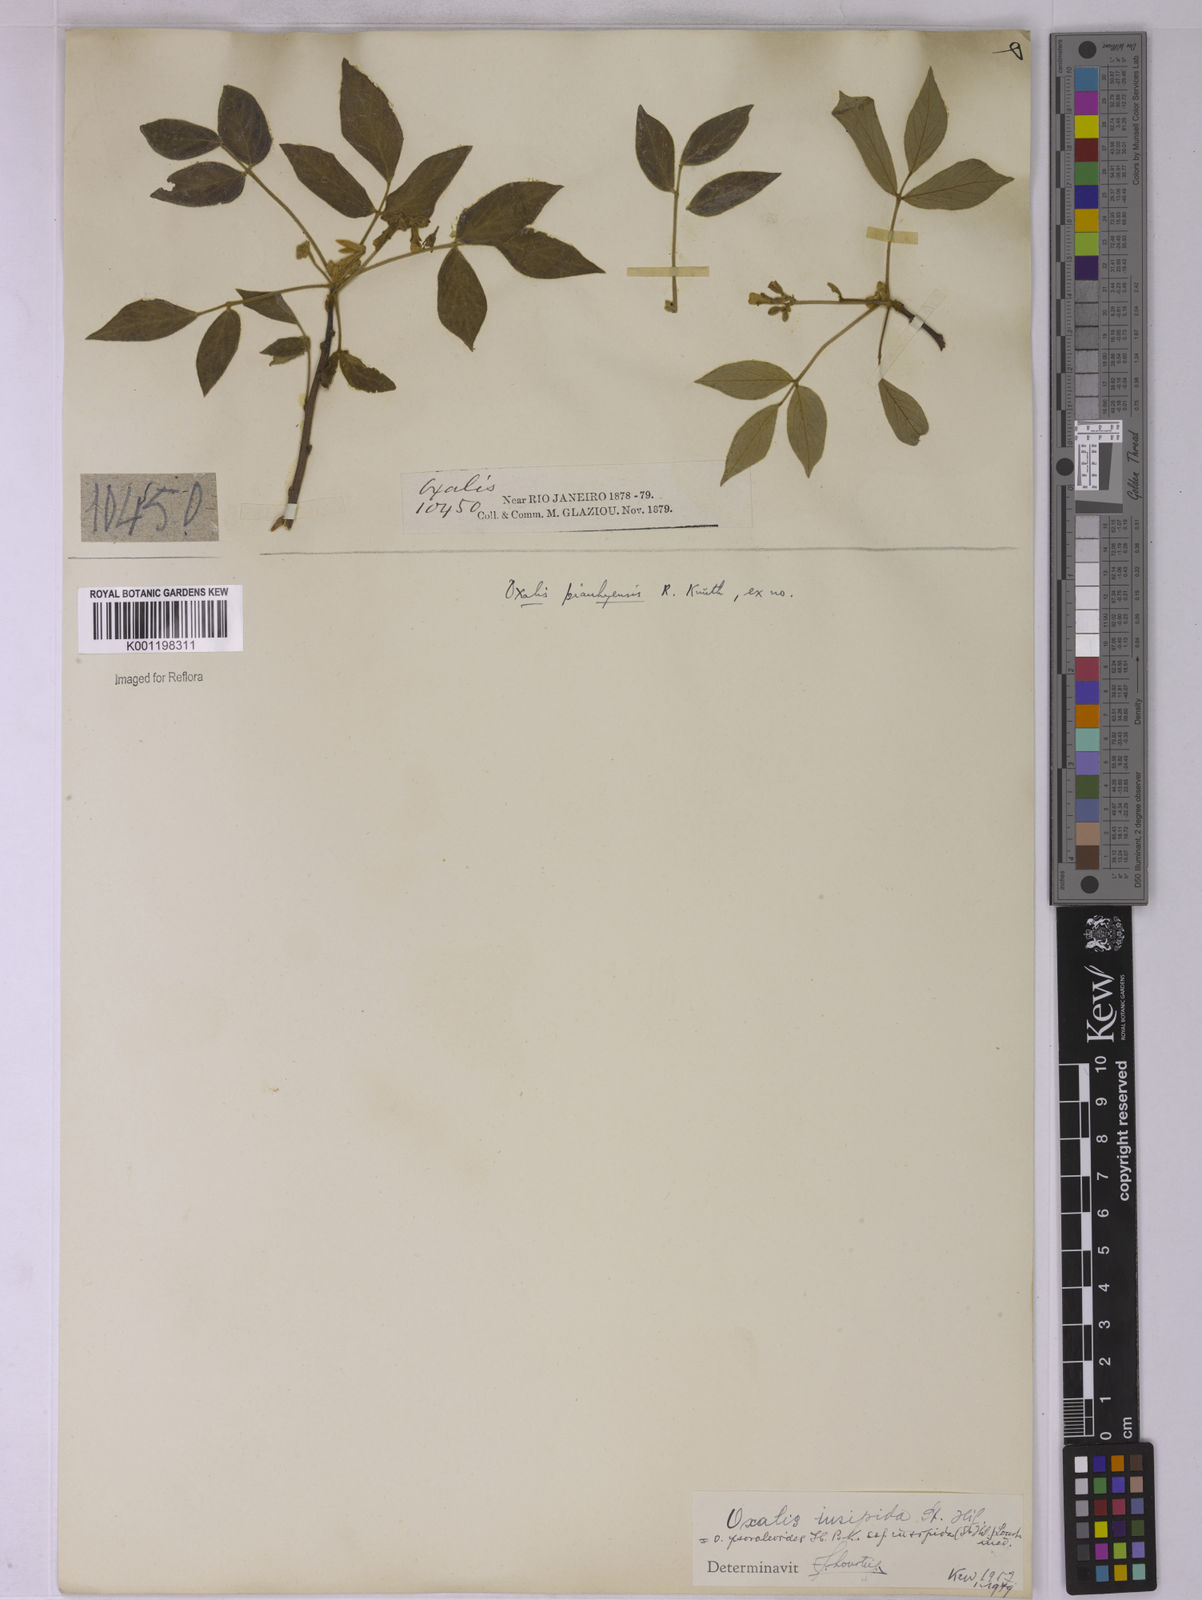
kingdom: Plantae
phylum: Tracheophyta
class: Magnoliopsida
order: Oxalidales
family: Oxalidaceae
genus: Oxalis
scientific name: Oxalis psoraleoides
